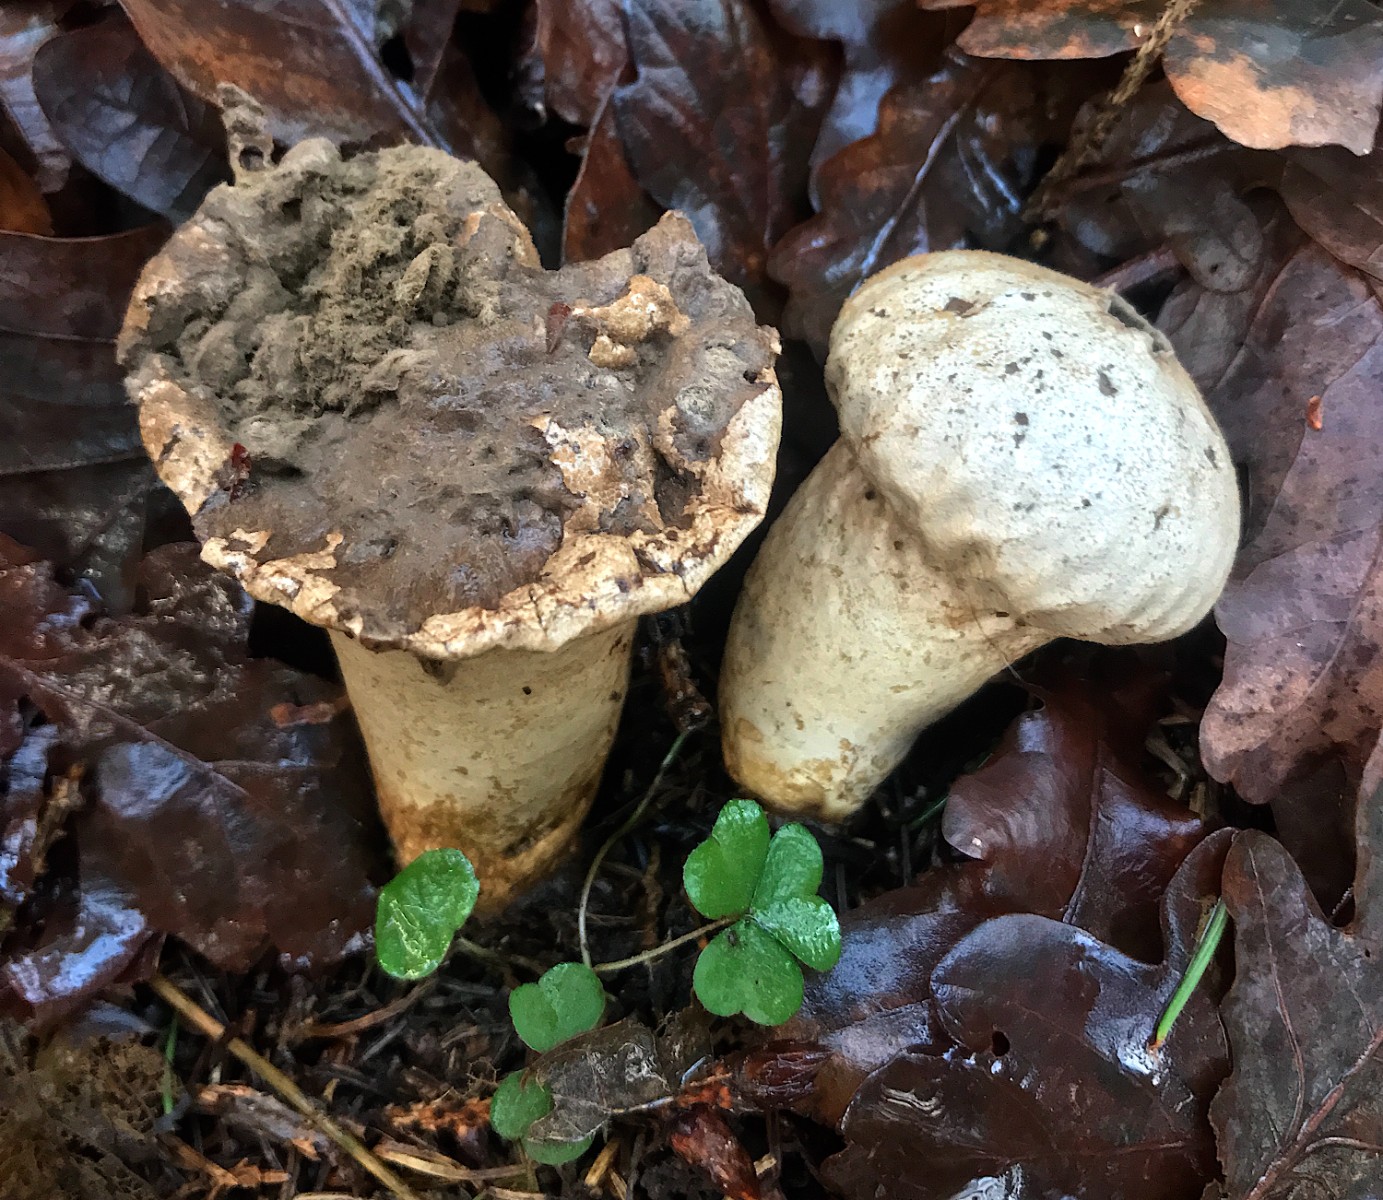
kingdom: Fungi
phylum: Basidiomycota
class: Agaricomycetes
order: Agaricales
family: Lycoperdaceae
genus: Lycoperdon
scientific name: Lycoperdon excipuliforme
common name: højstokket støvbold
